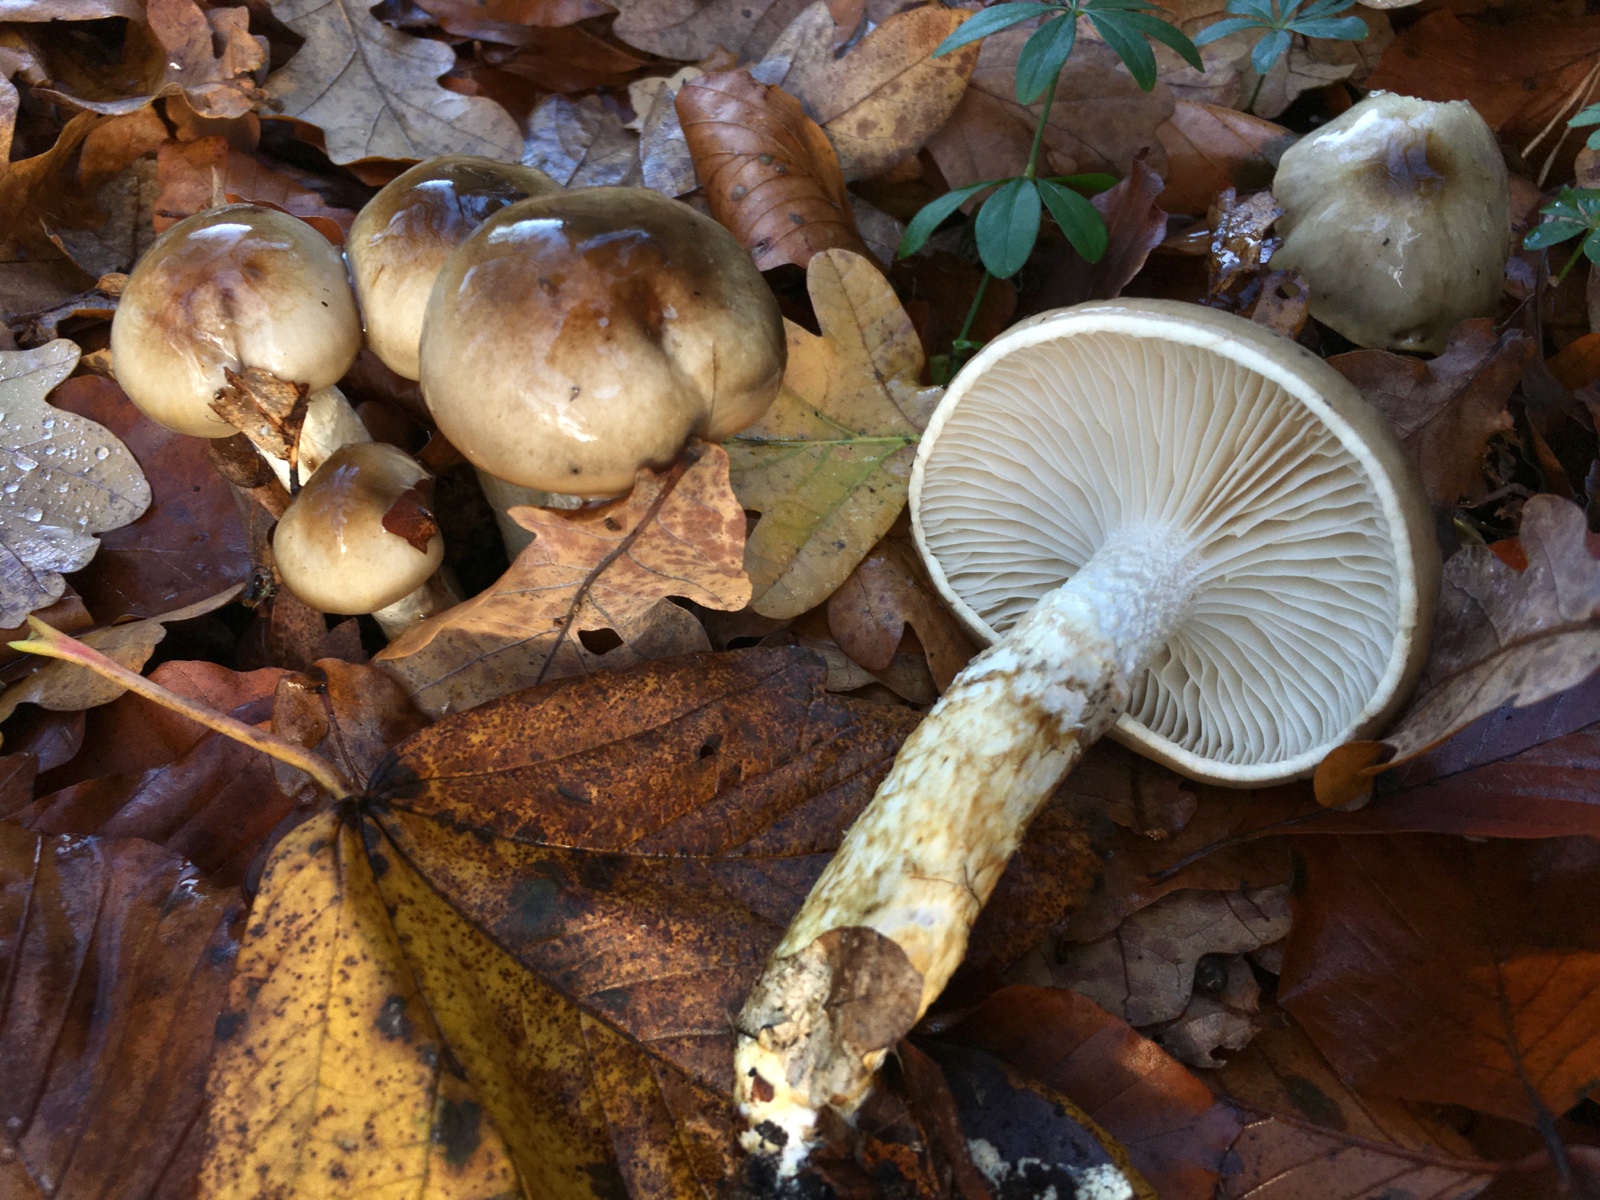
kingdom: Fungi
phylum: Basidiomycota
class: Agaricomycetes
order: Agaricales
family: Hygrophoraceae
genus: Hygrophorus
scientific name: Hygrophorus glutinifer
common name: tvefarvet sneglehat
